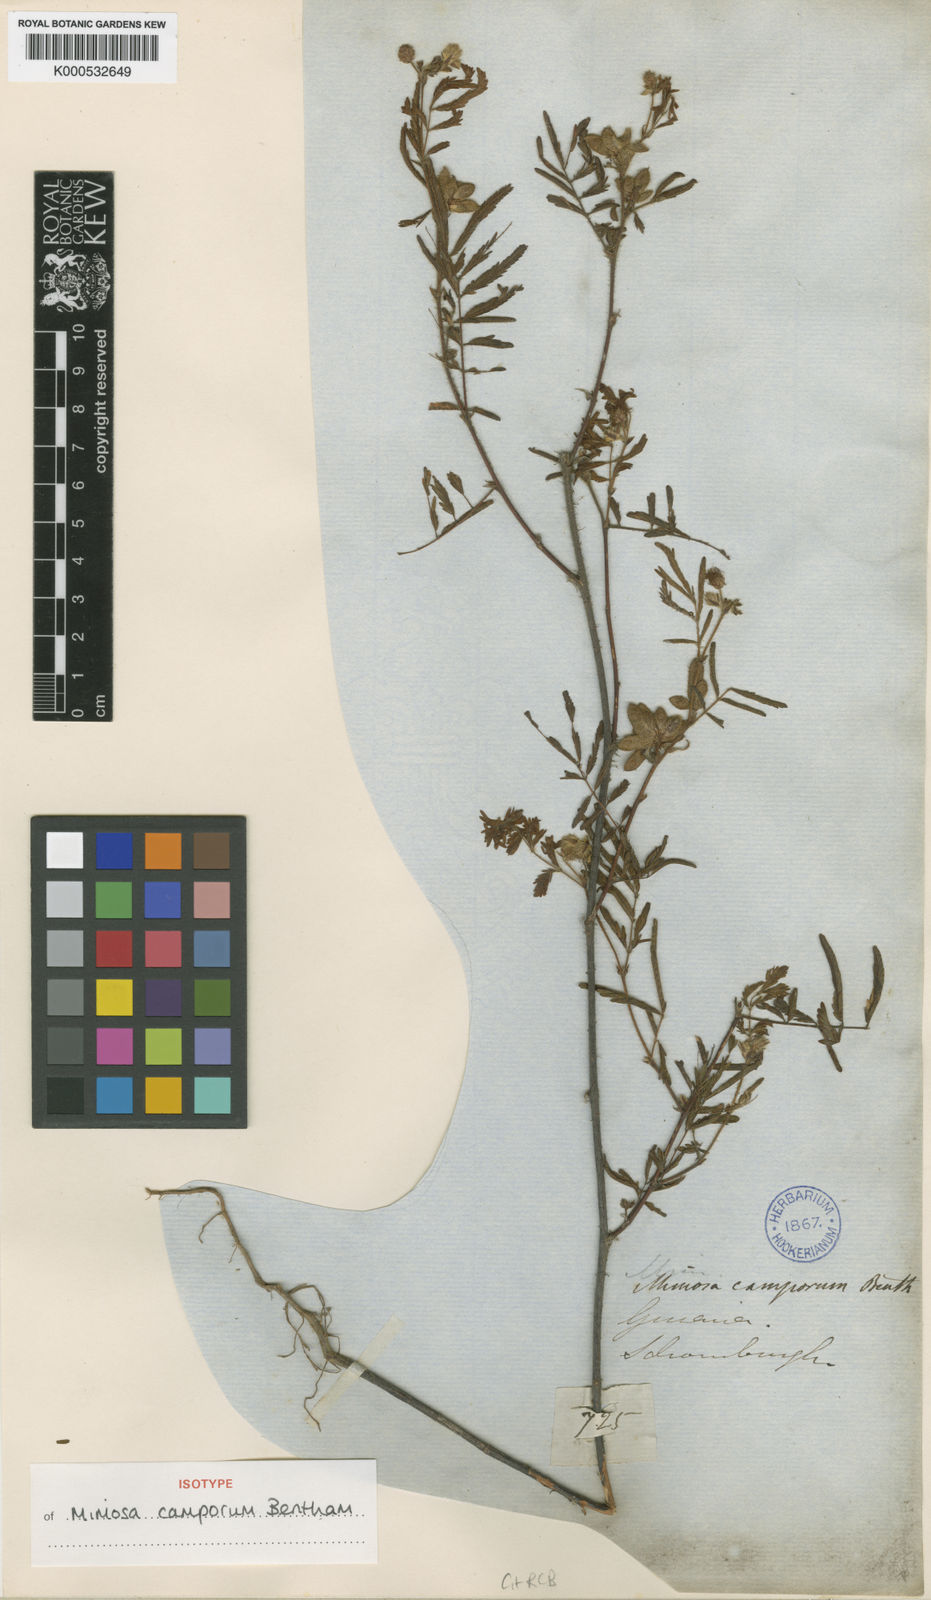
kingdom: Plantae
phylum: Tracheophyta
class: Magnoliopsida
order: Fabales
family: Fabaceae
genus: Mimosa
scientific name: Mimosa camporum
